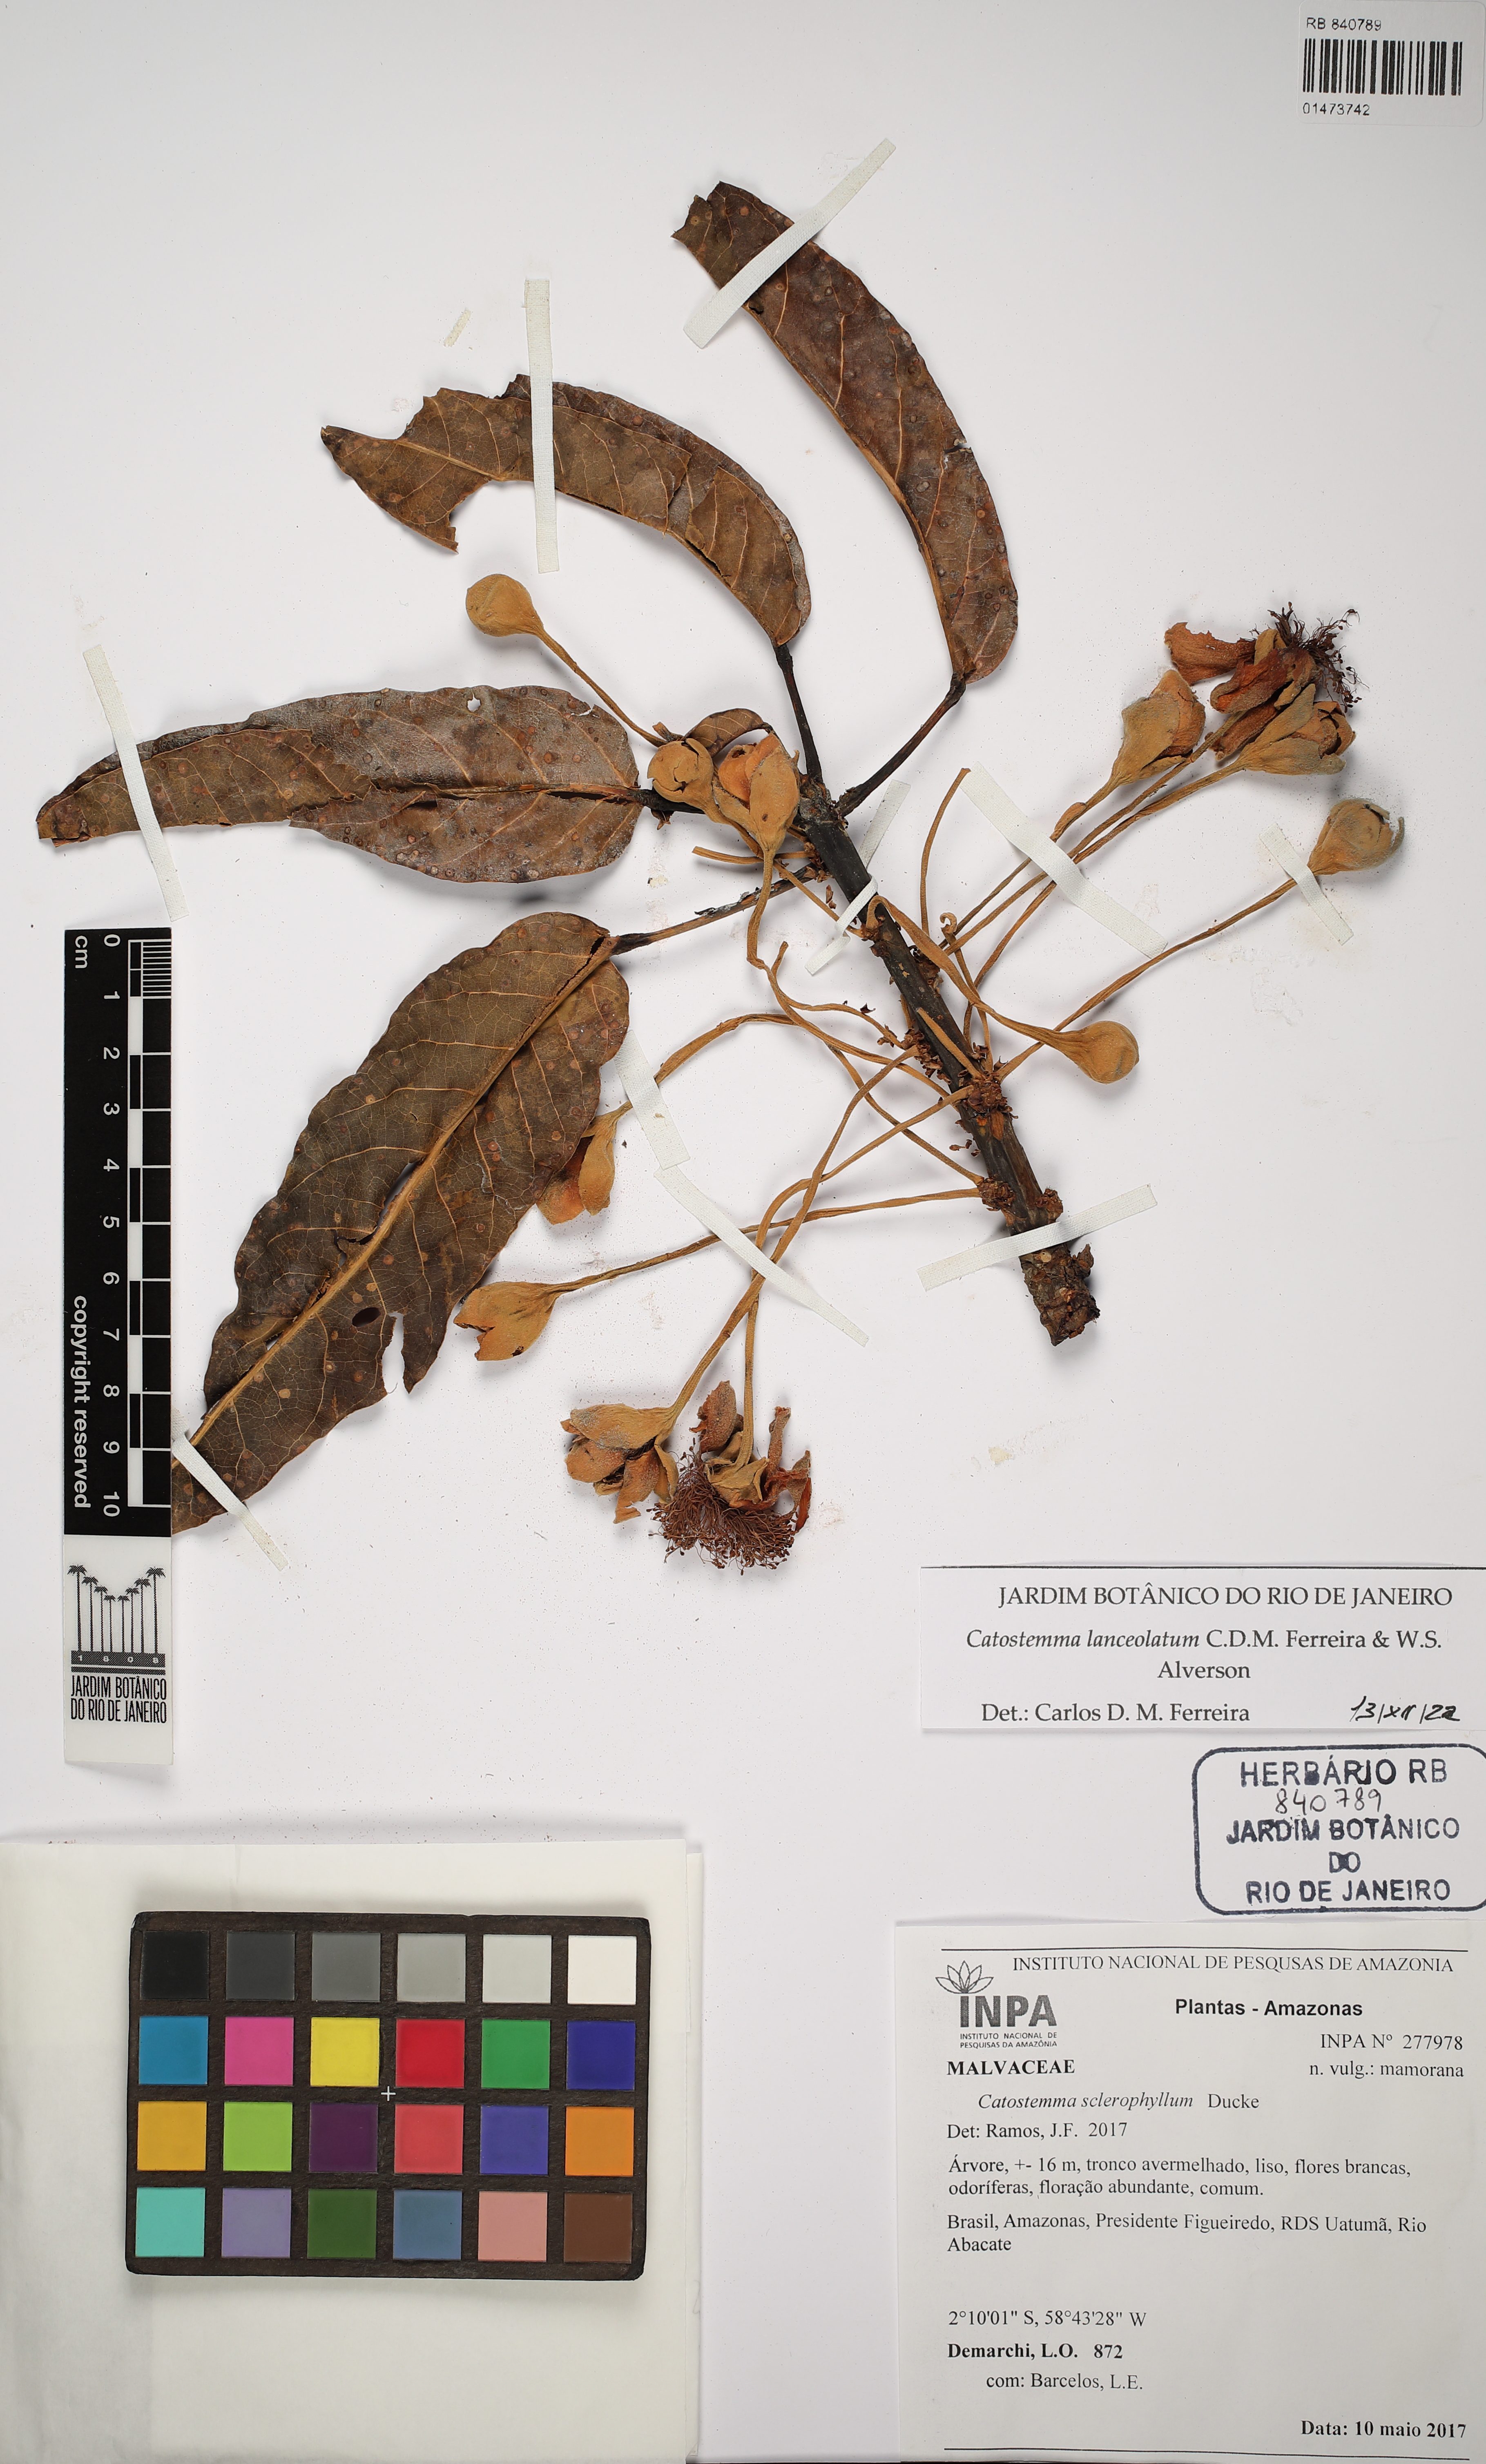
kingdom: Plantae
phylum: Tracheophyta
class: Magnoliopsida
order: Malvales
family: Malvaceae
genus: Catostemma
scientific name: Catostemma lanceolatum
